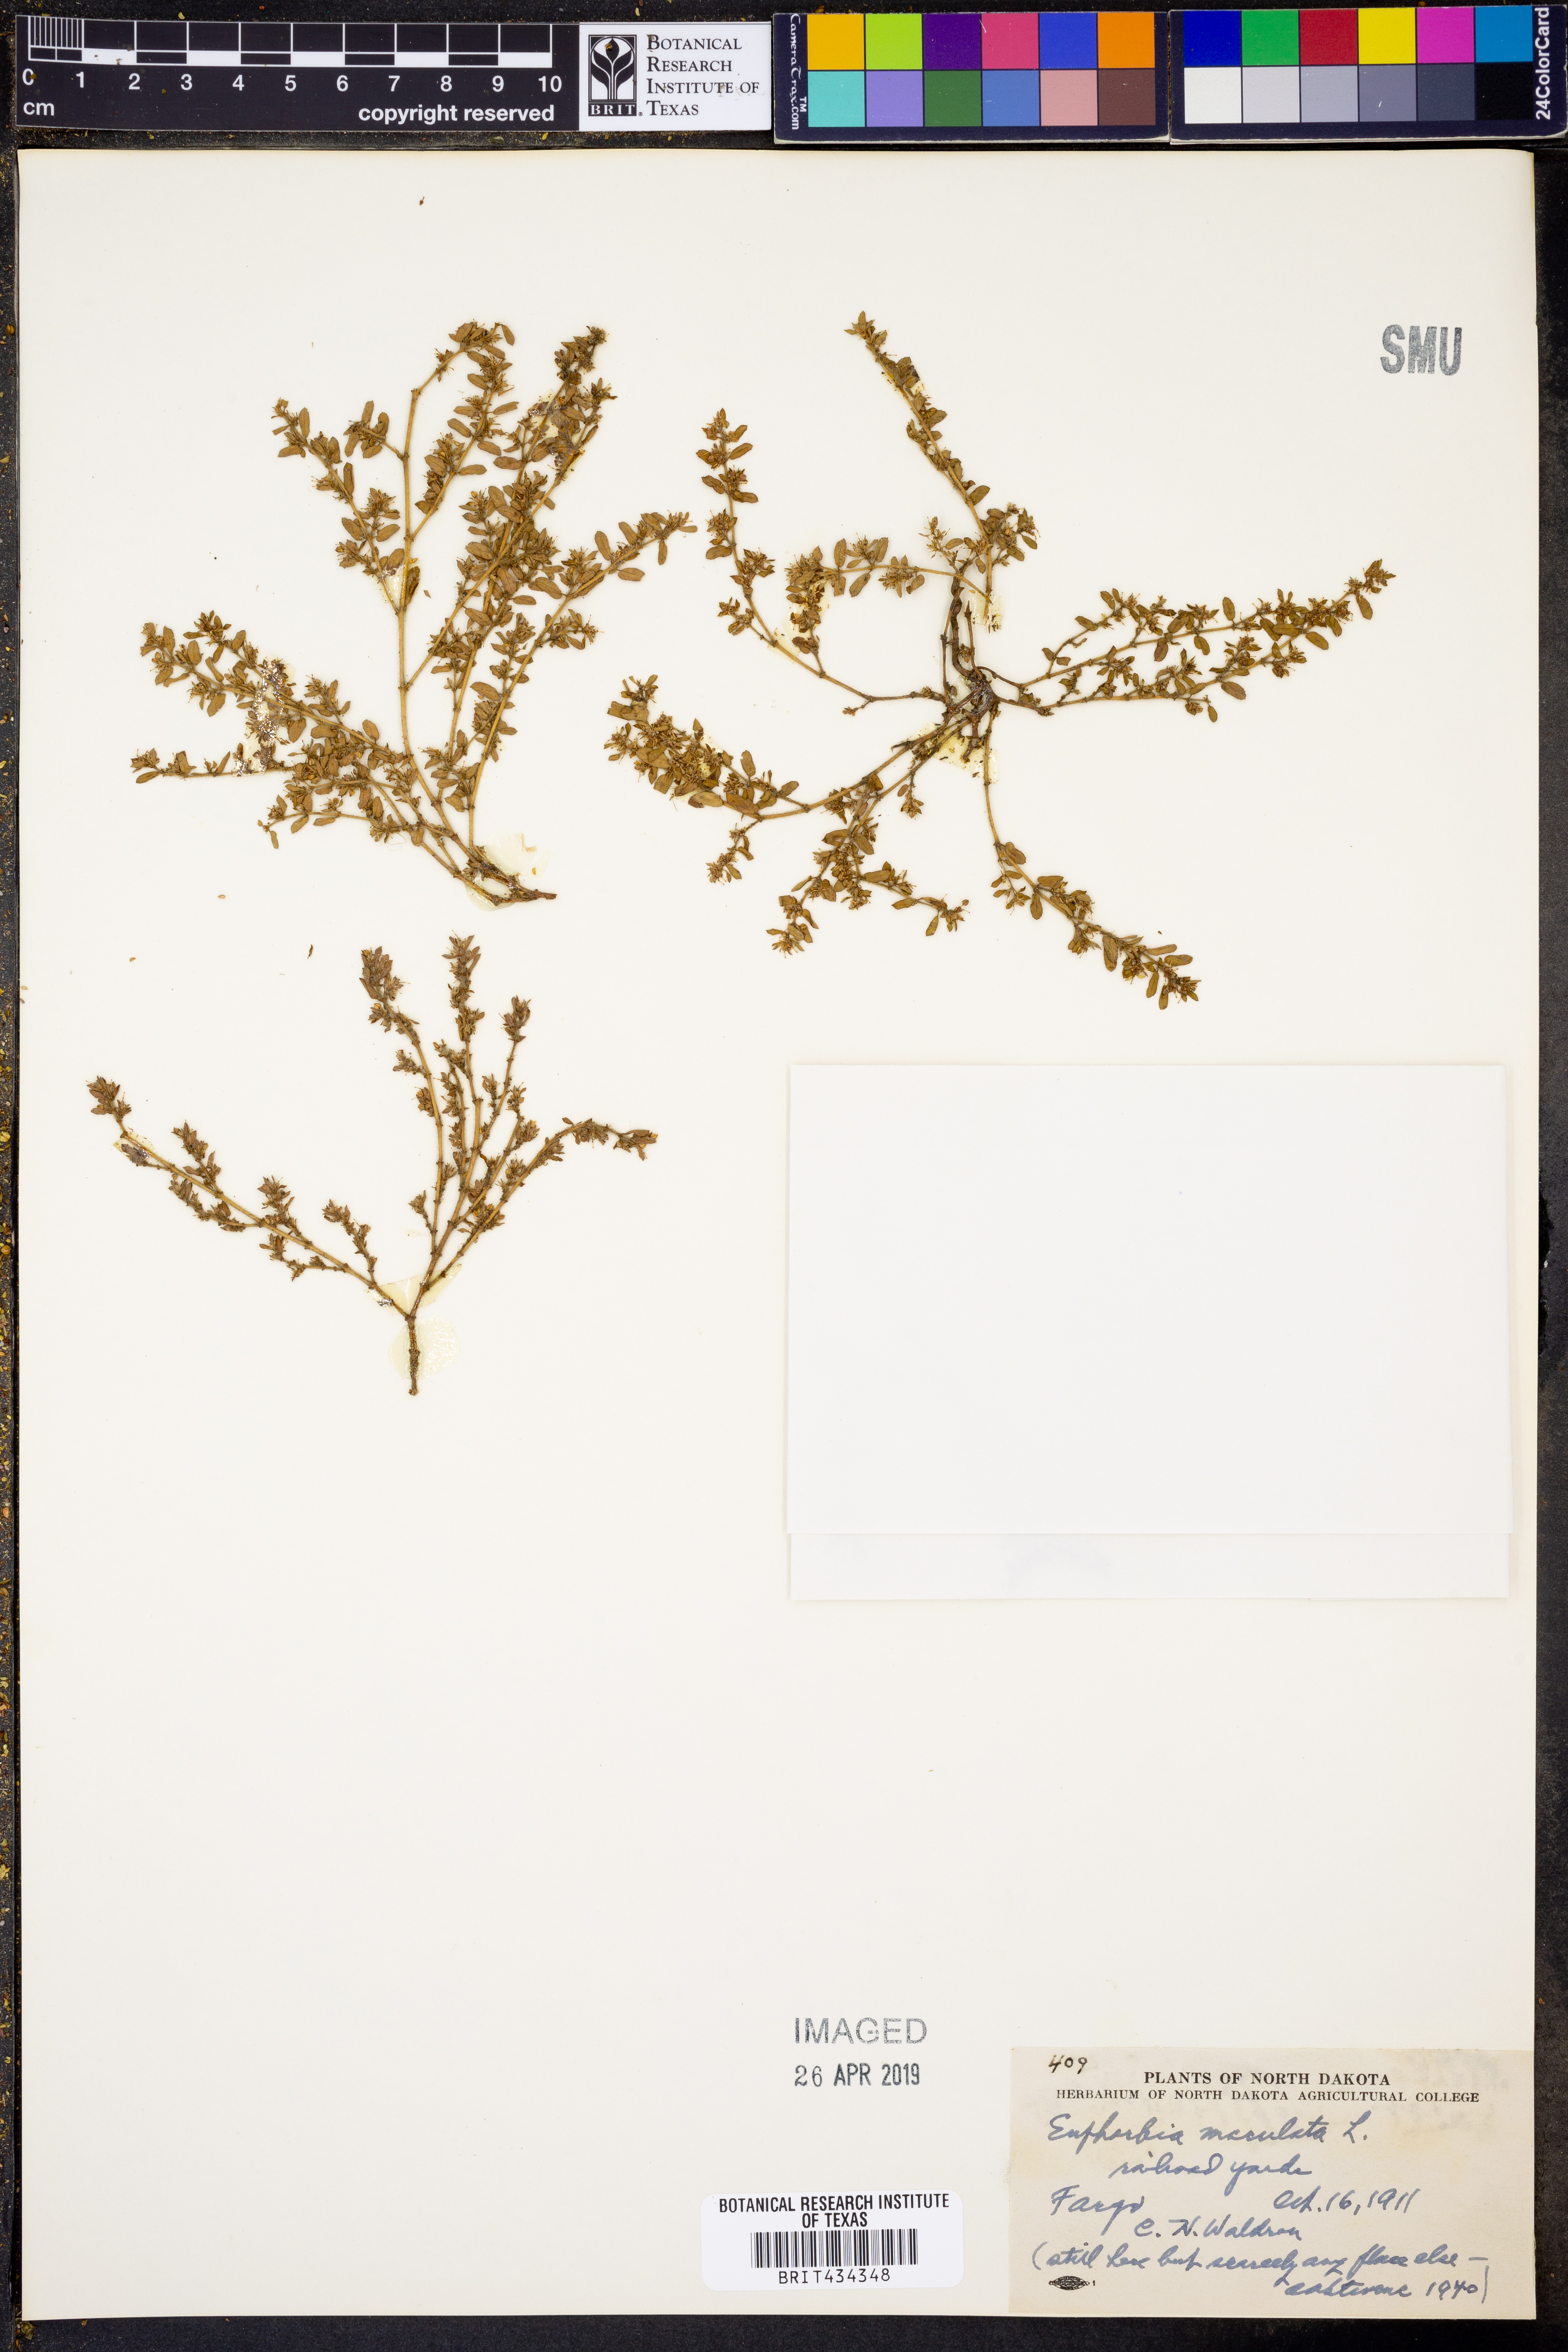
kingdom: Plantae
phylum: Tracheophyta
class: Magnoliopsida
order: Malpighiales
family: Euphorbiaceae
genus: Euphorbia
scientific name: Euphorbia maculata
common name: Spotted spurge
